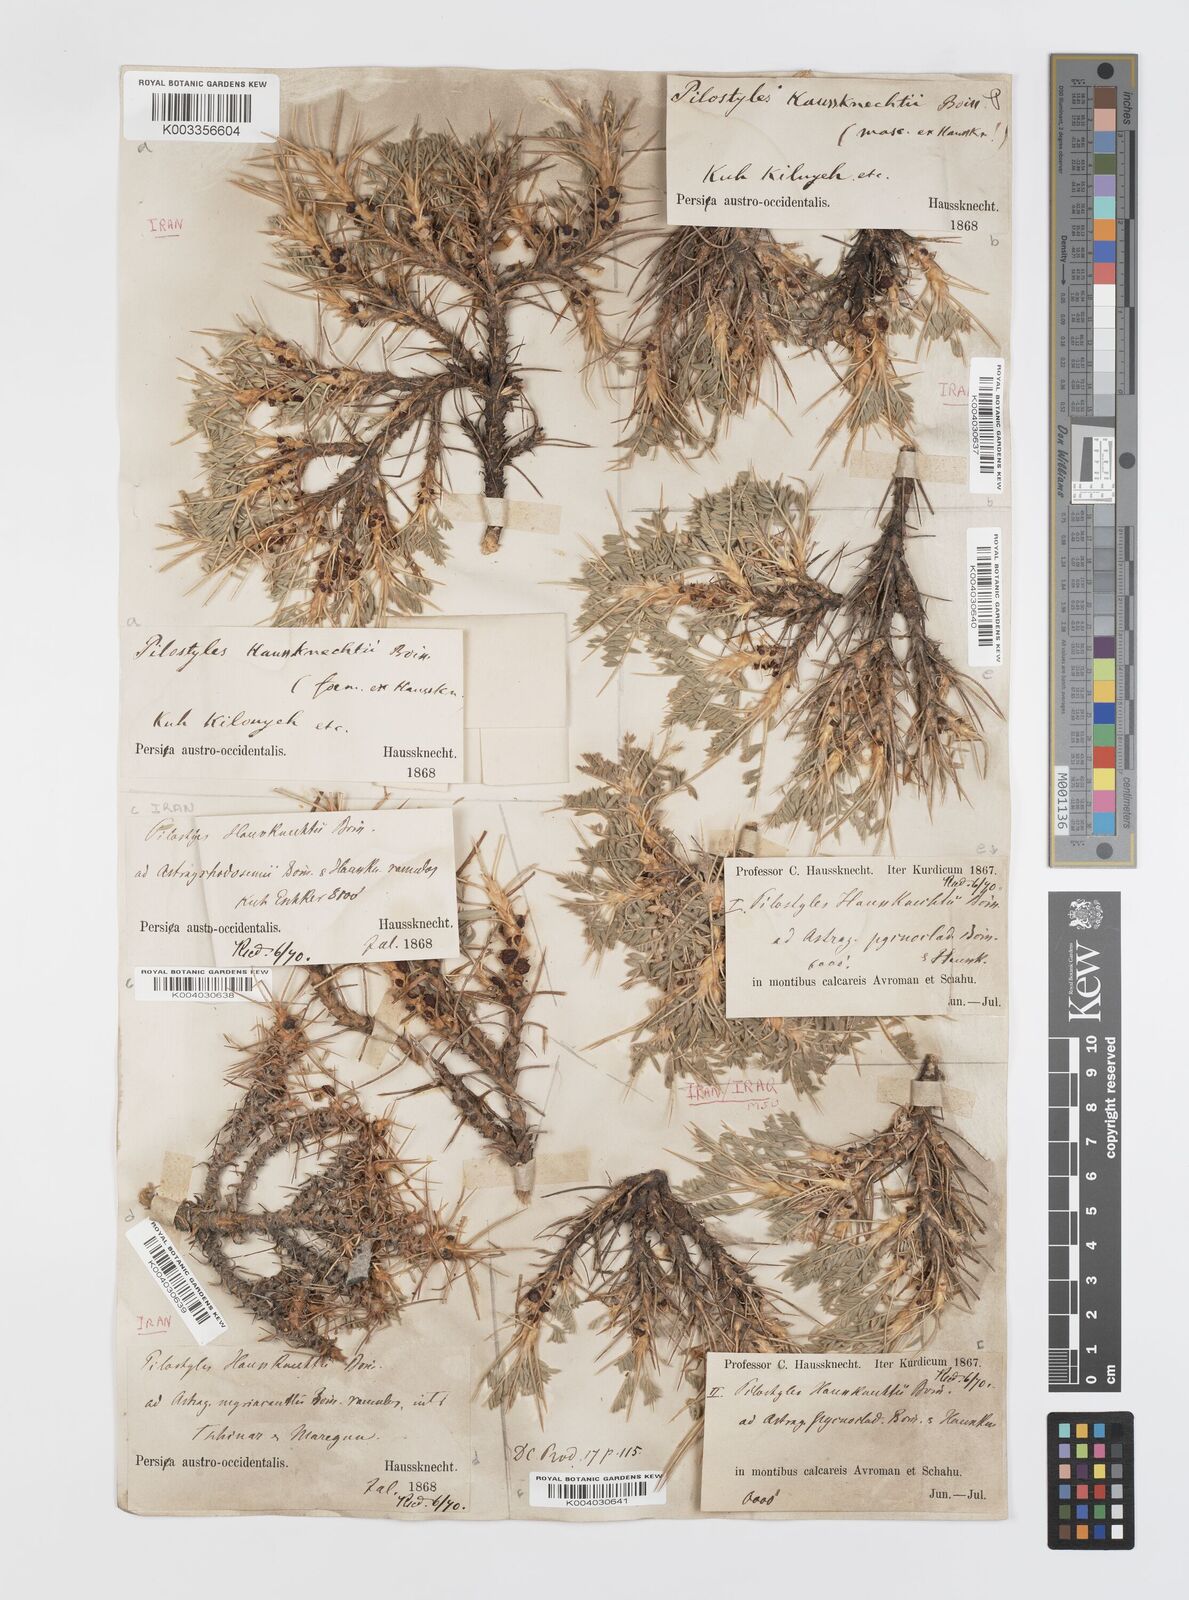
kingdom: Plantae
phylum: Tracheophyta
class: Magnoliopsida
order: Cucurbitales
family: Apodanthaceae
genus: Pilostyles
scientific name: Pilostyles haussknechtii
